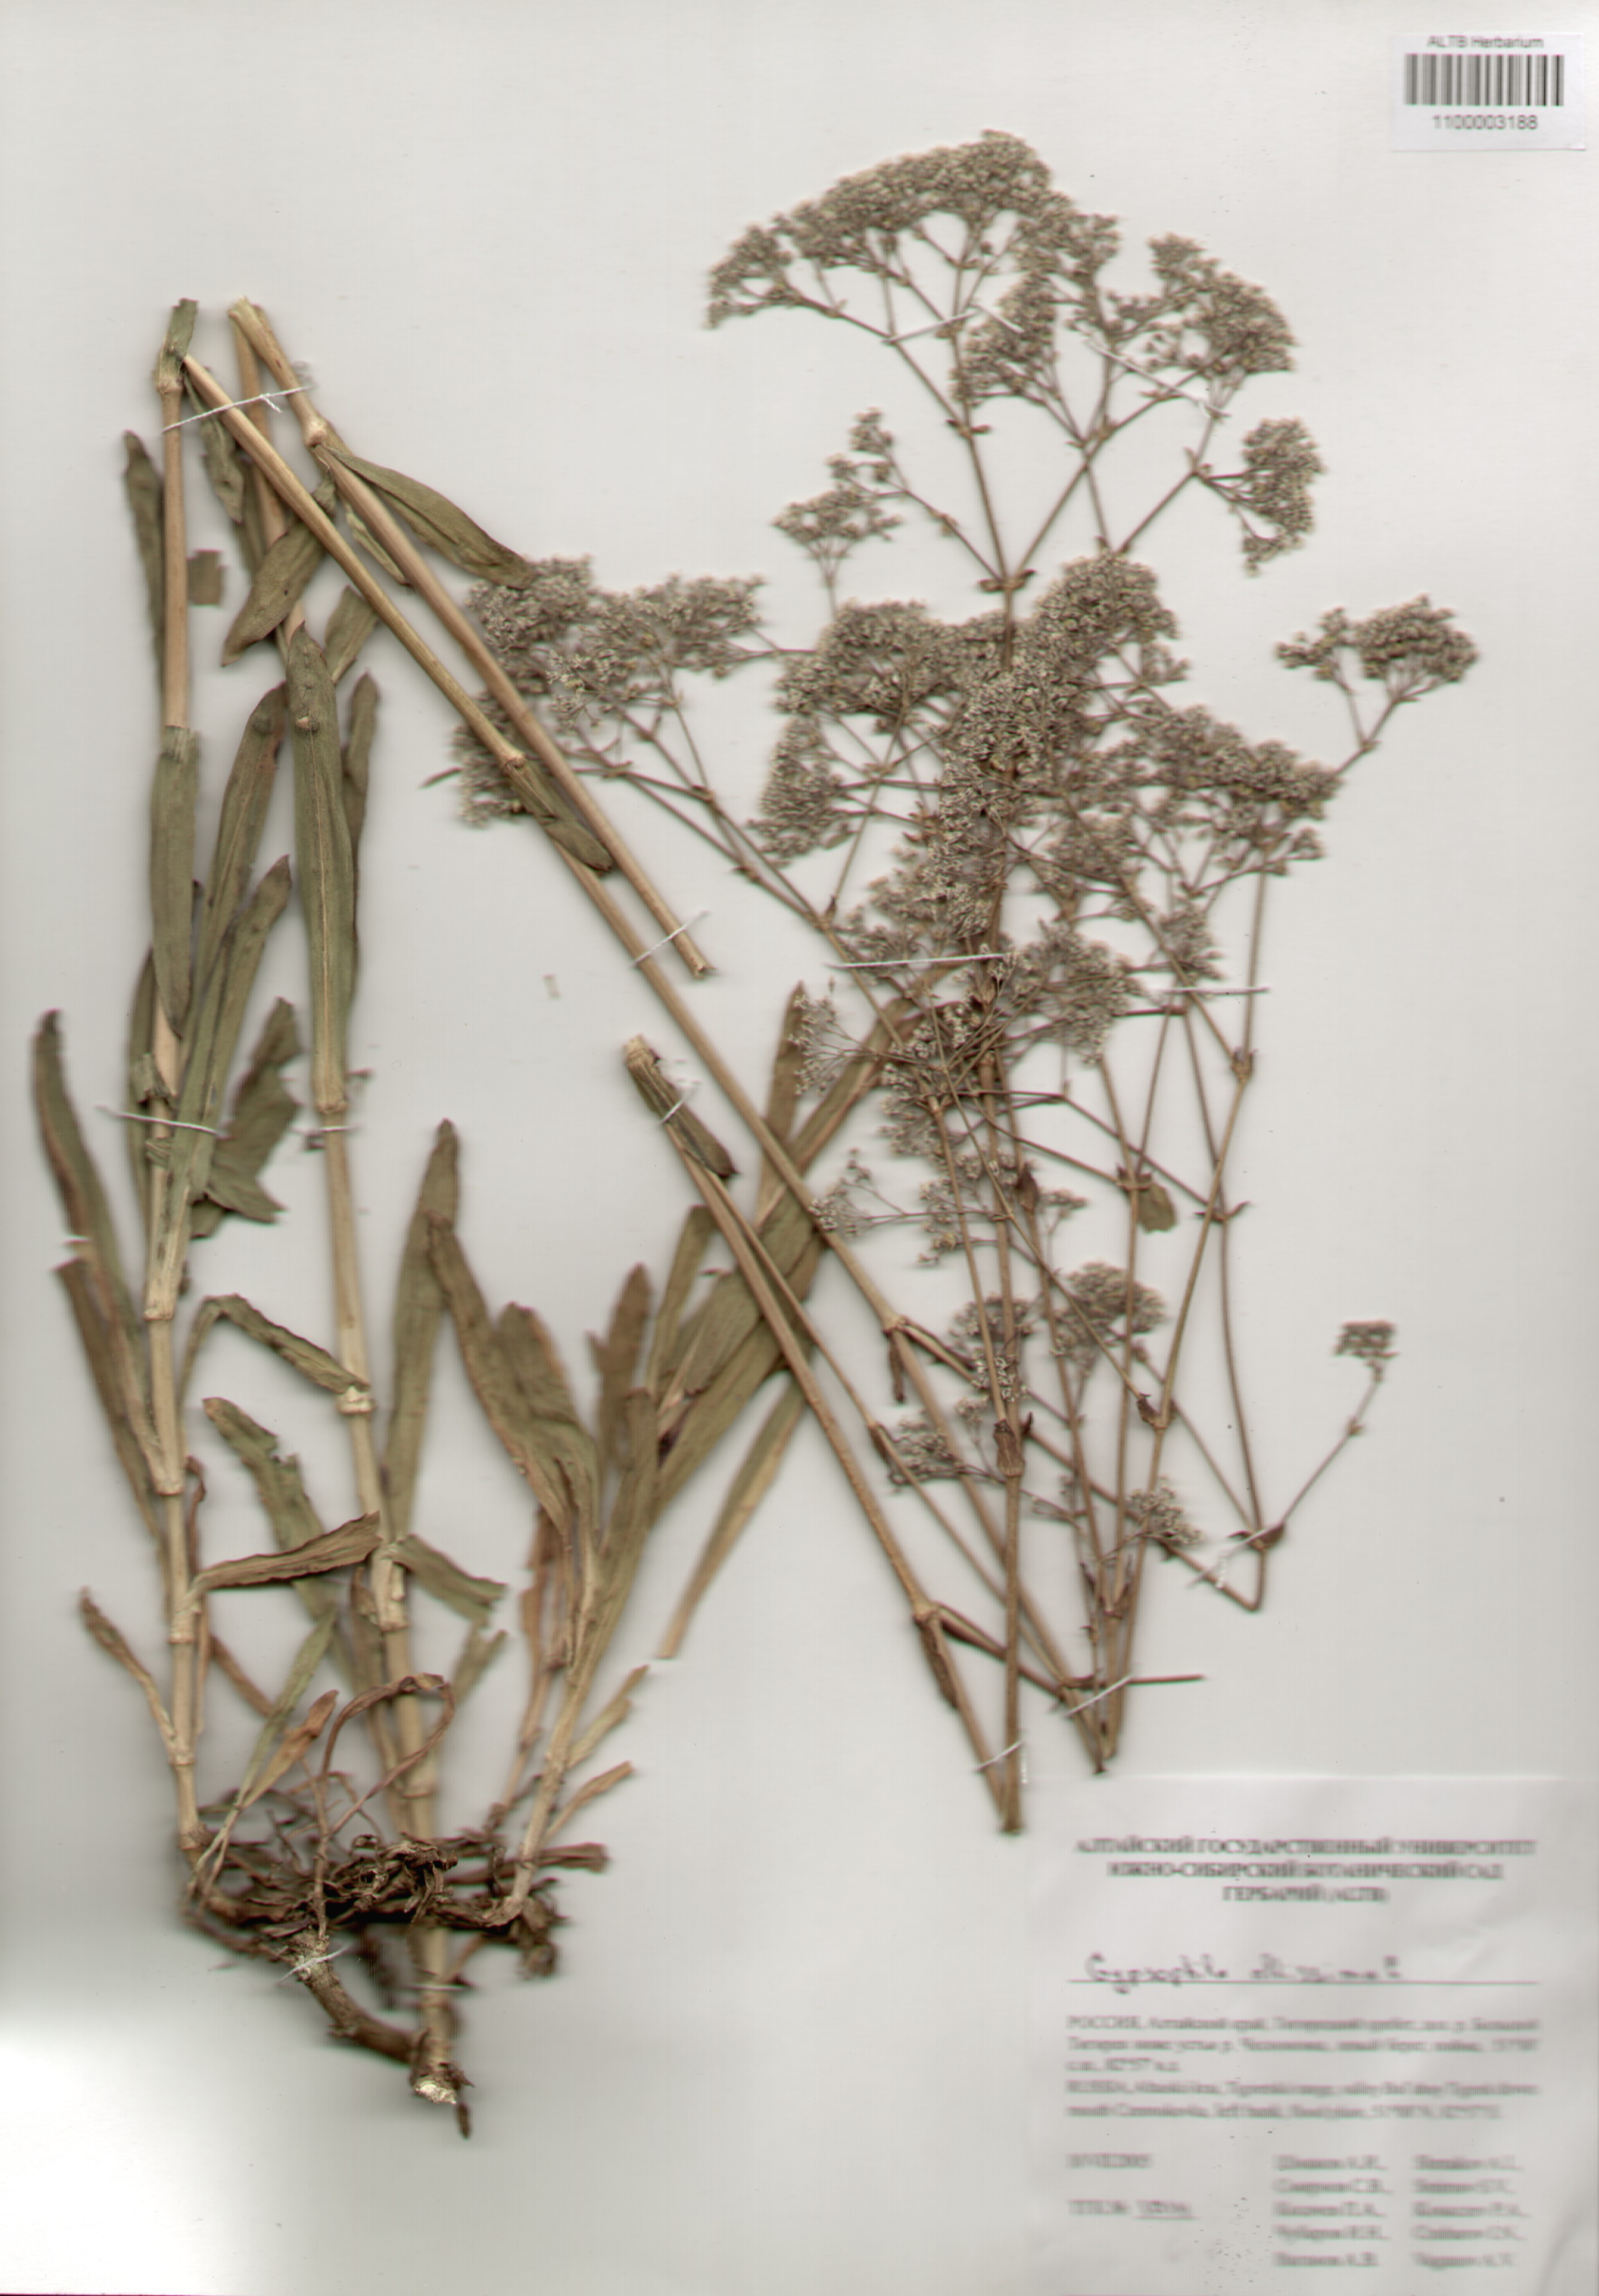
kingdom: Plantae
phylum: Tracheophyta
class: Magnoliopsida
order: Caryophyllales
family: Caryophyllaceae
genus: Gypsophila
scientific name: Gypsophila altissima
